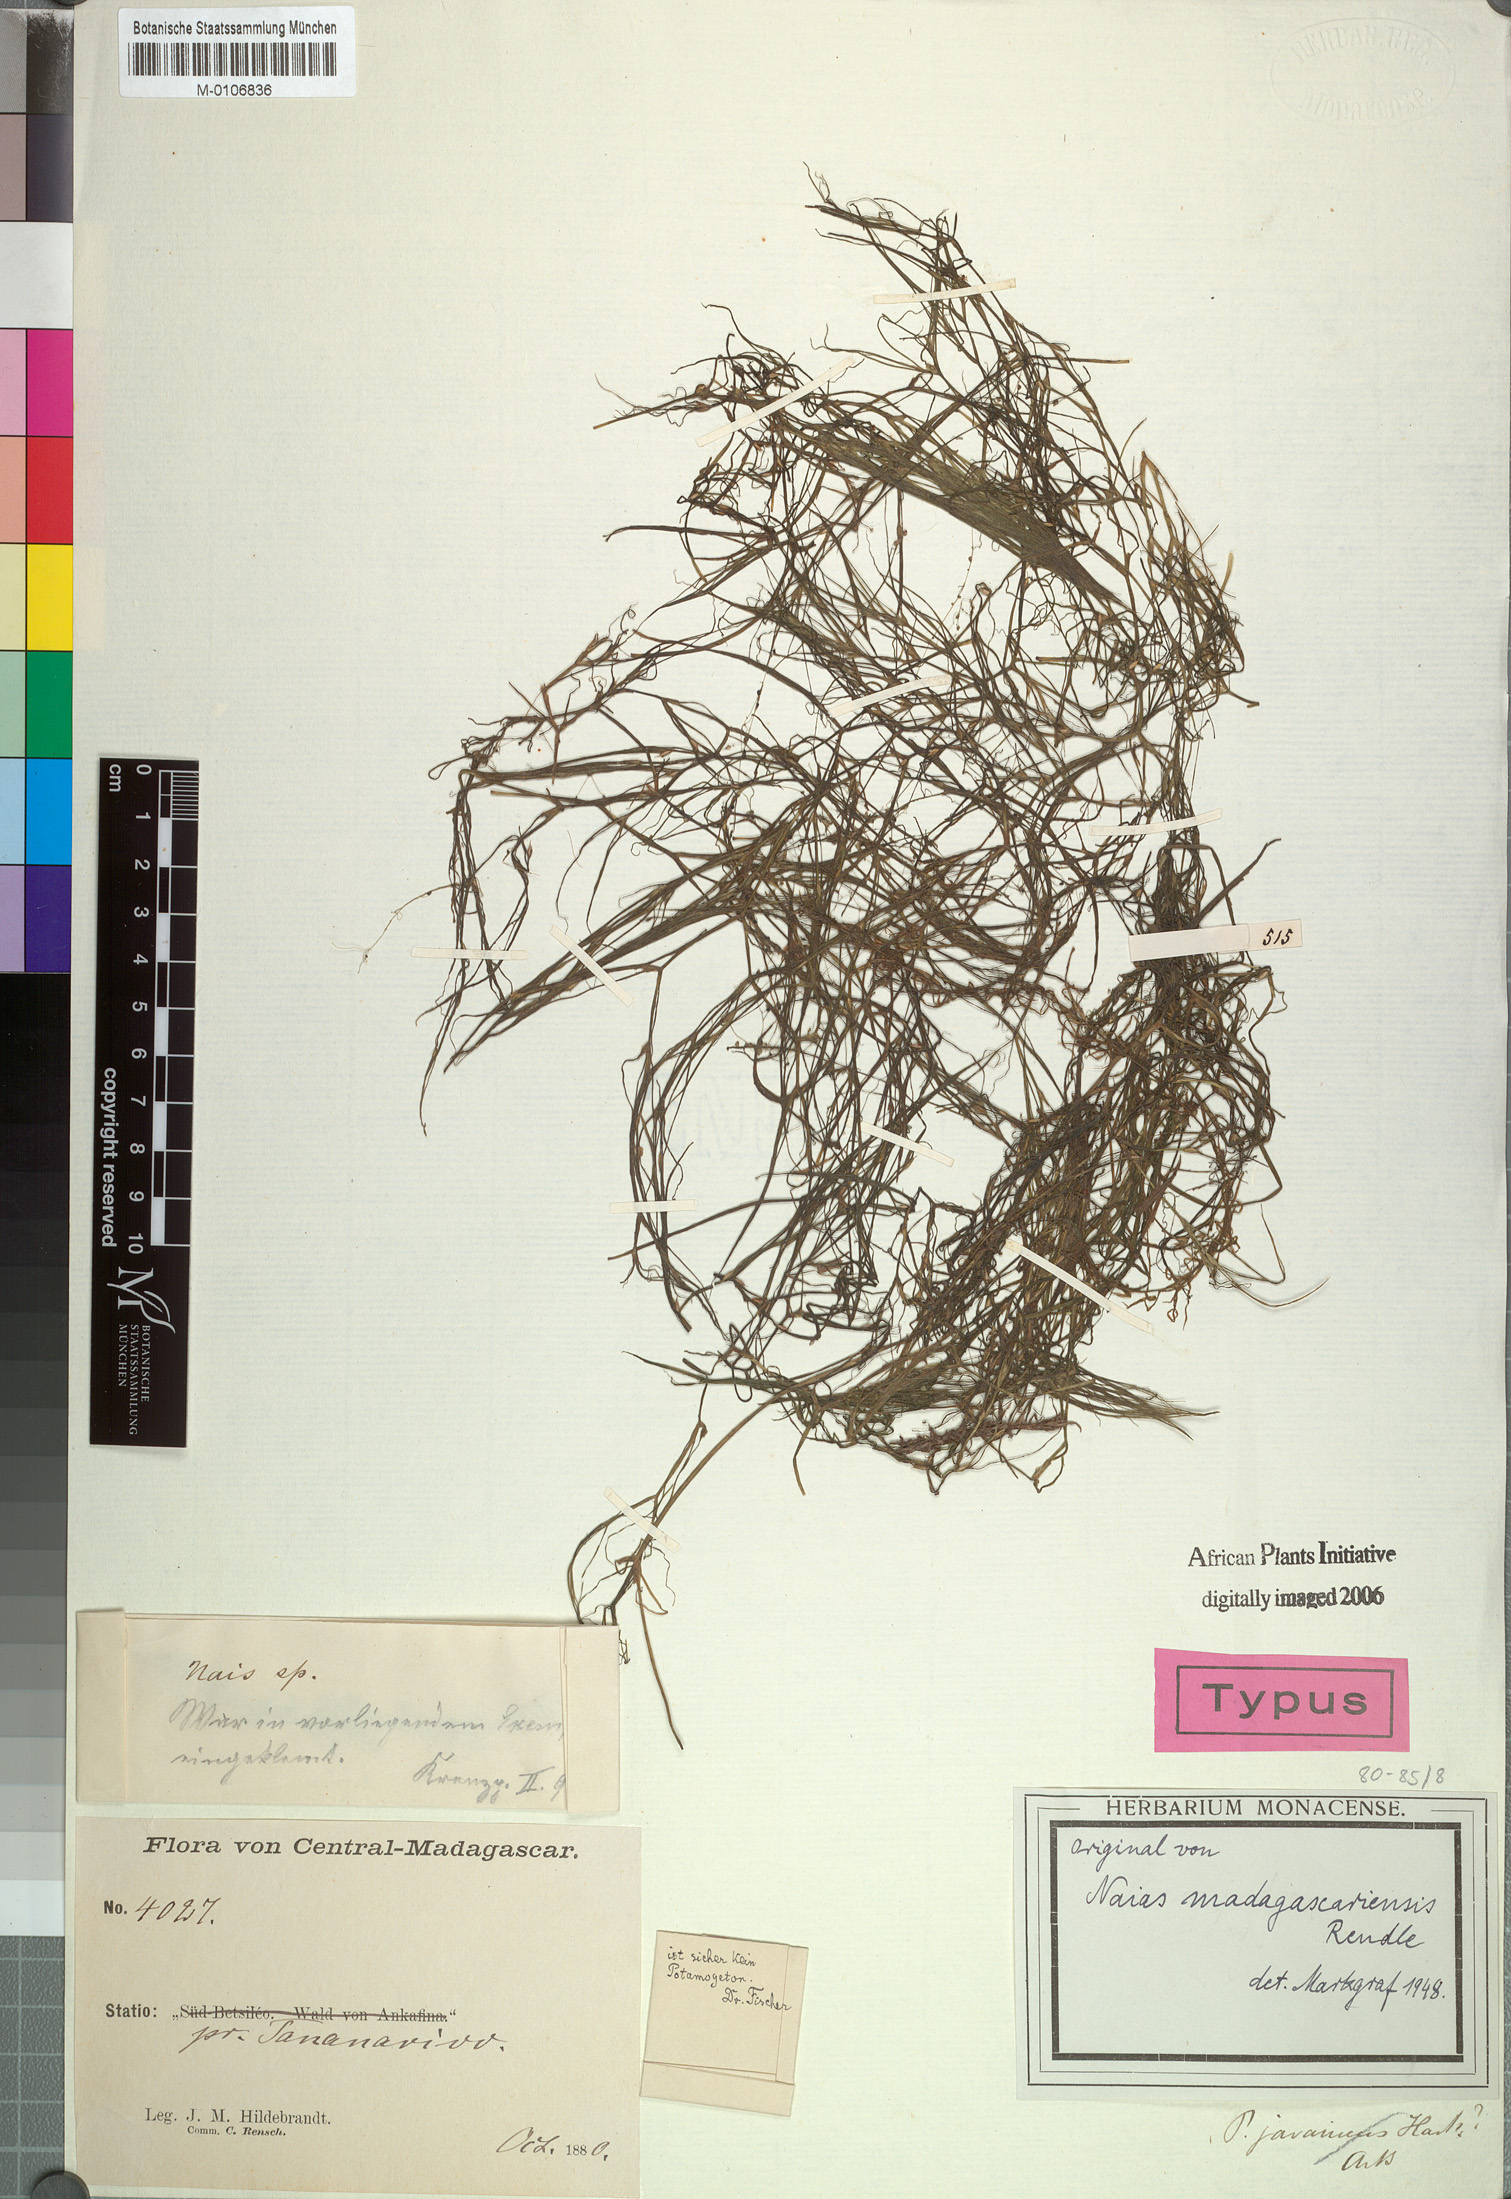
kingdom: Plantae
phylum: Tracheophyta
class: Liliopsida
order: Alismatales
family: Hydrocharitaceae
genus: Najas
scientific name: Najas madagascariensis
